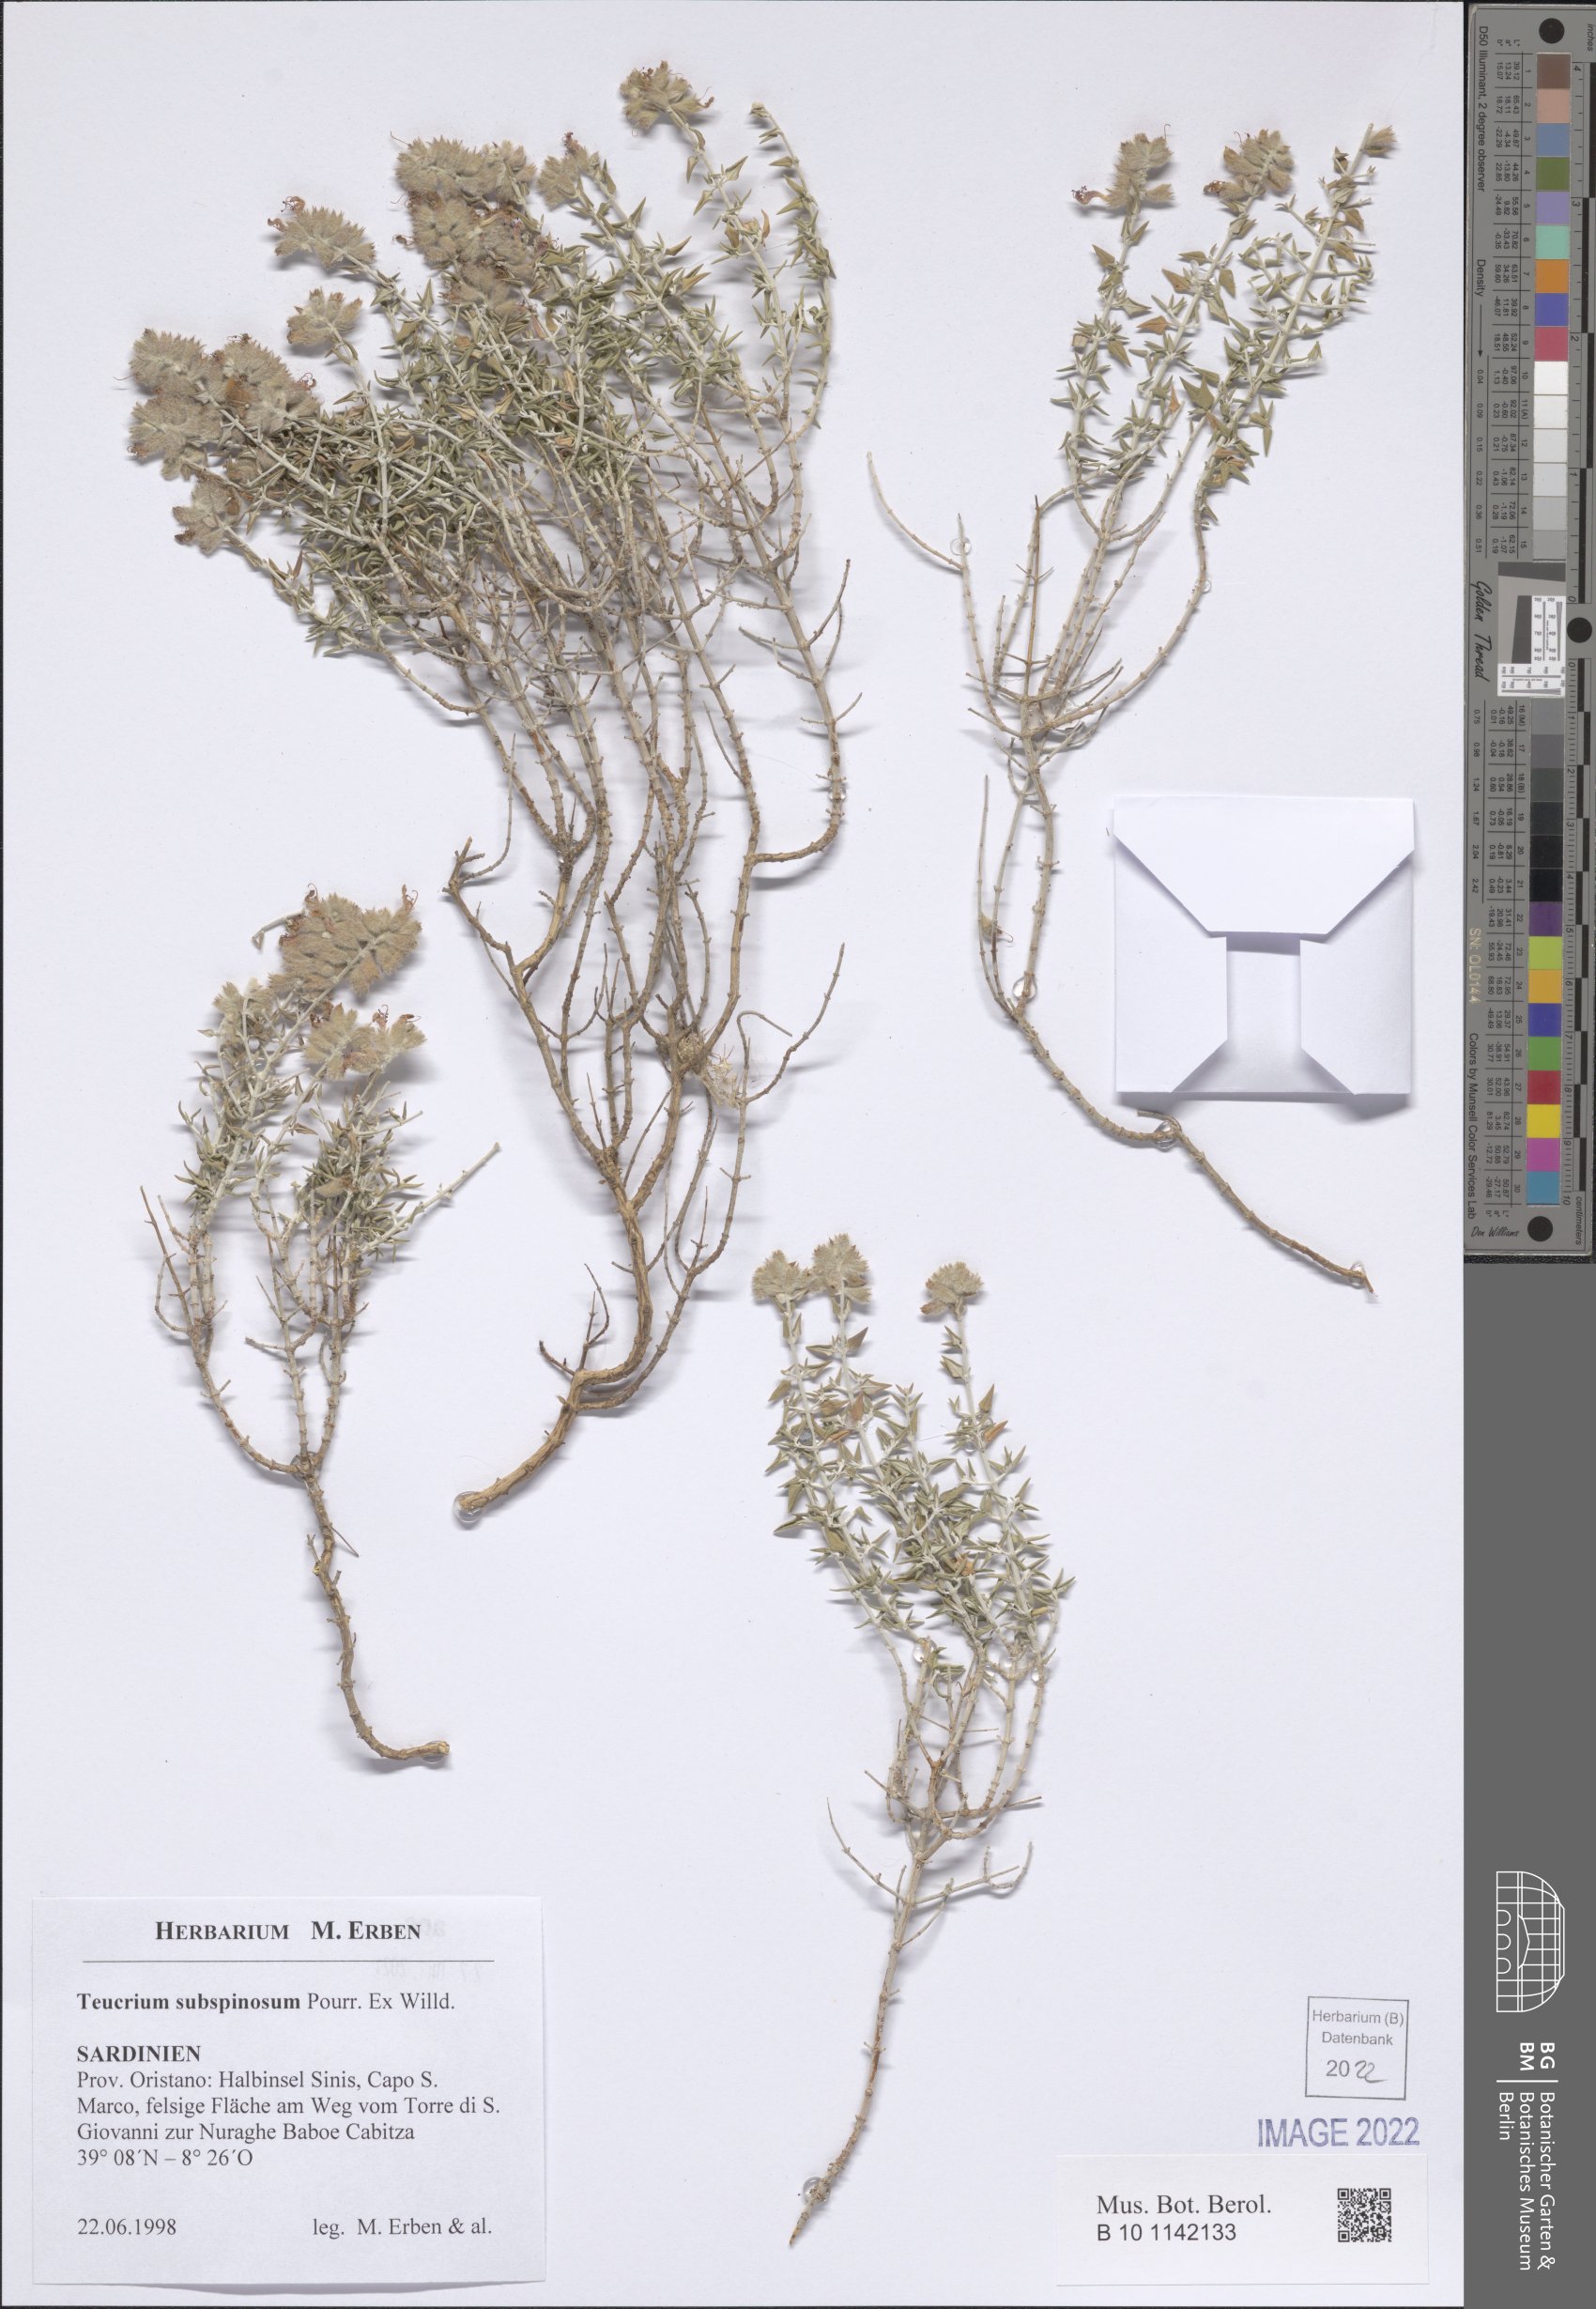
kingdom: Plantae
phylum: Tracheophyta
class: Magnoliopsida
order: Lamiales
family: Lamiaceae
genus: Teucrium
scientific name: Teucrium subspinosum
